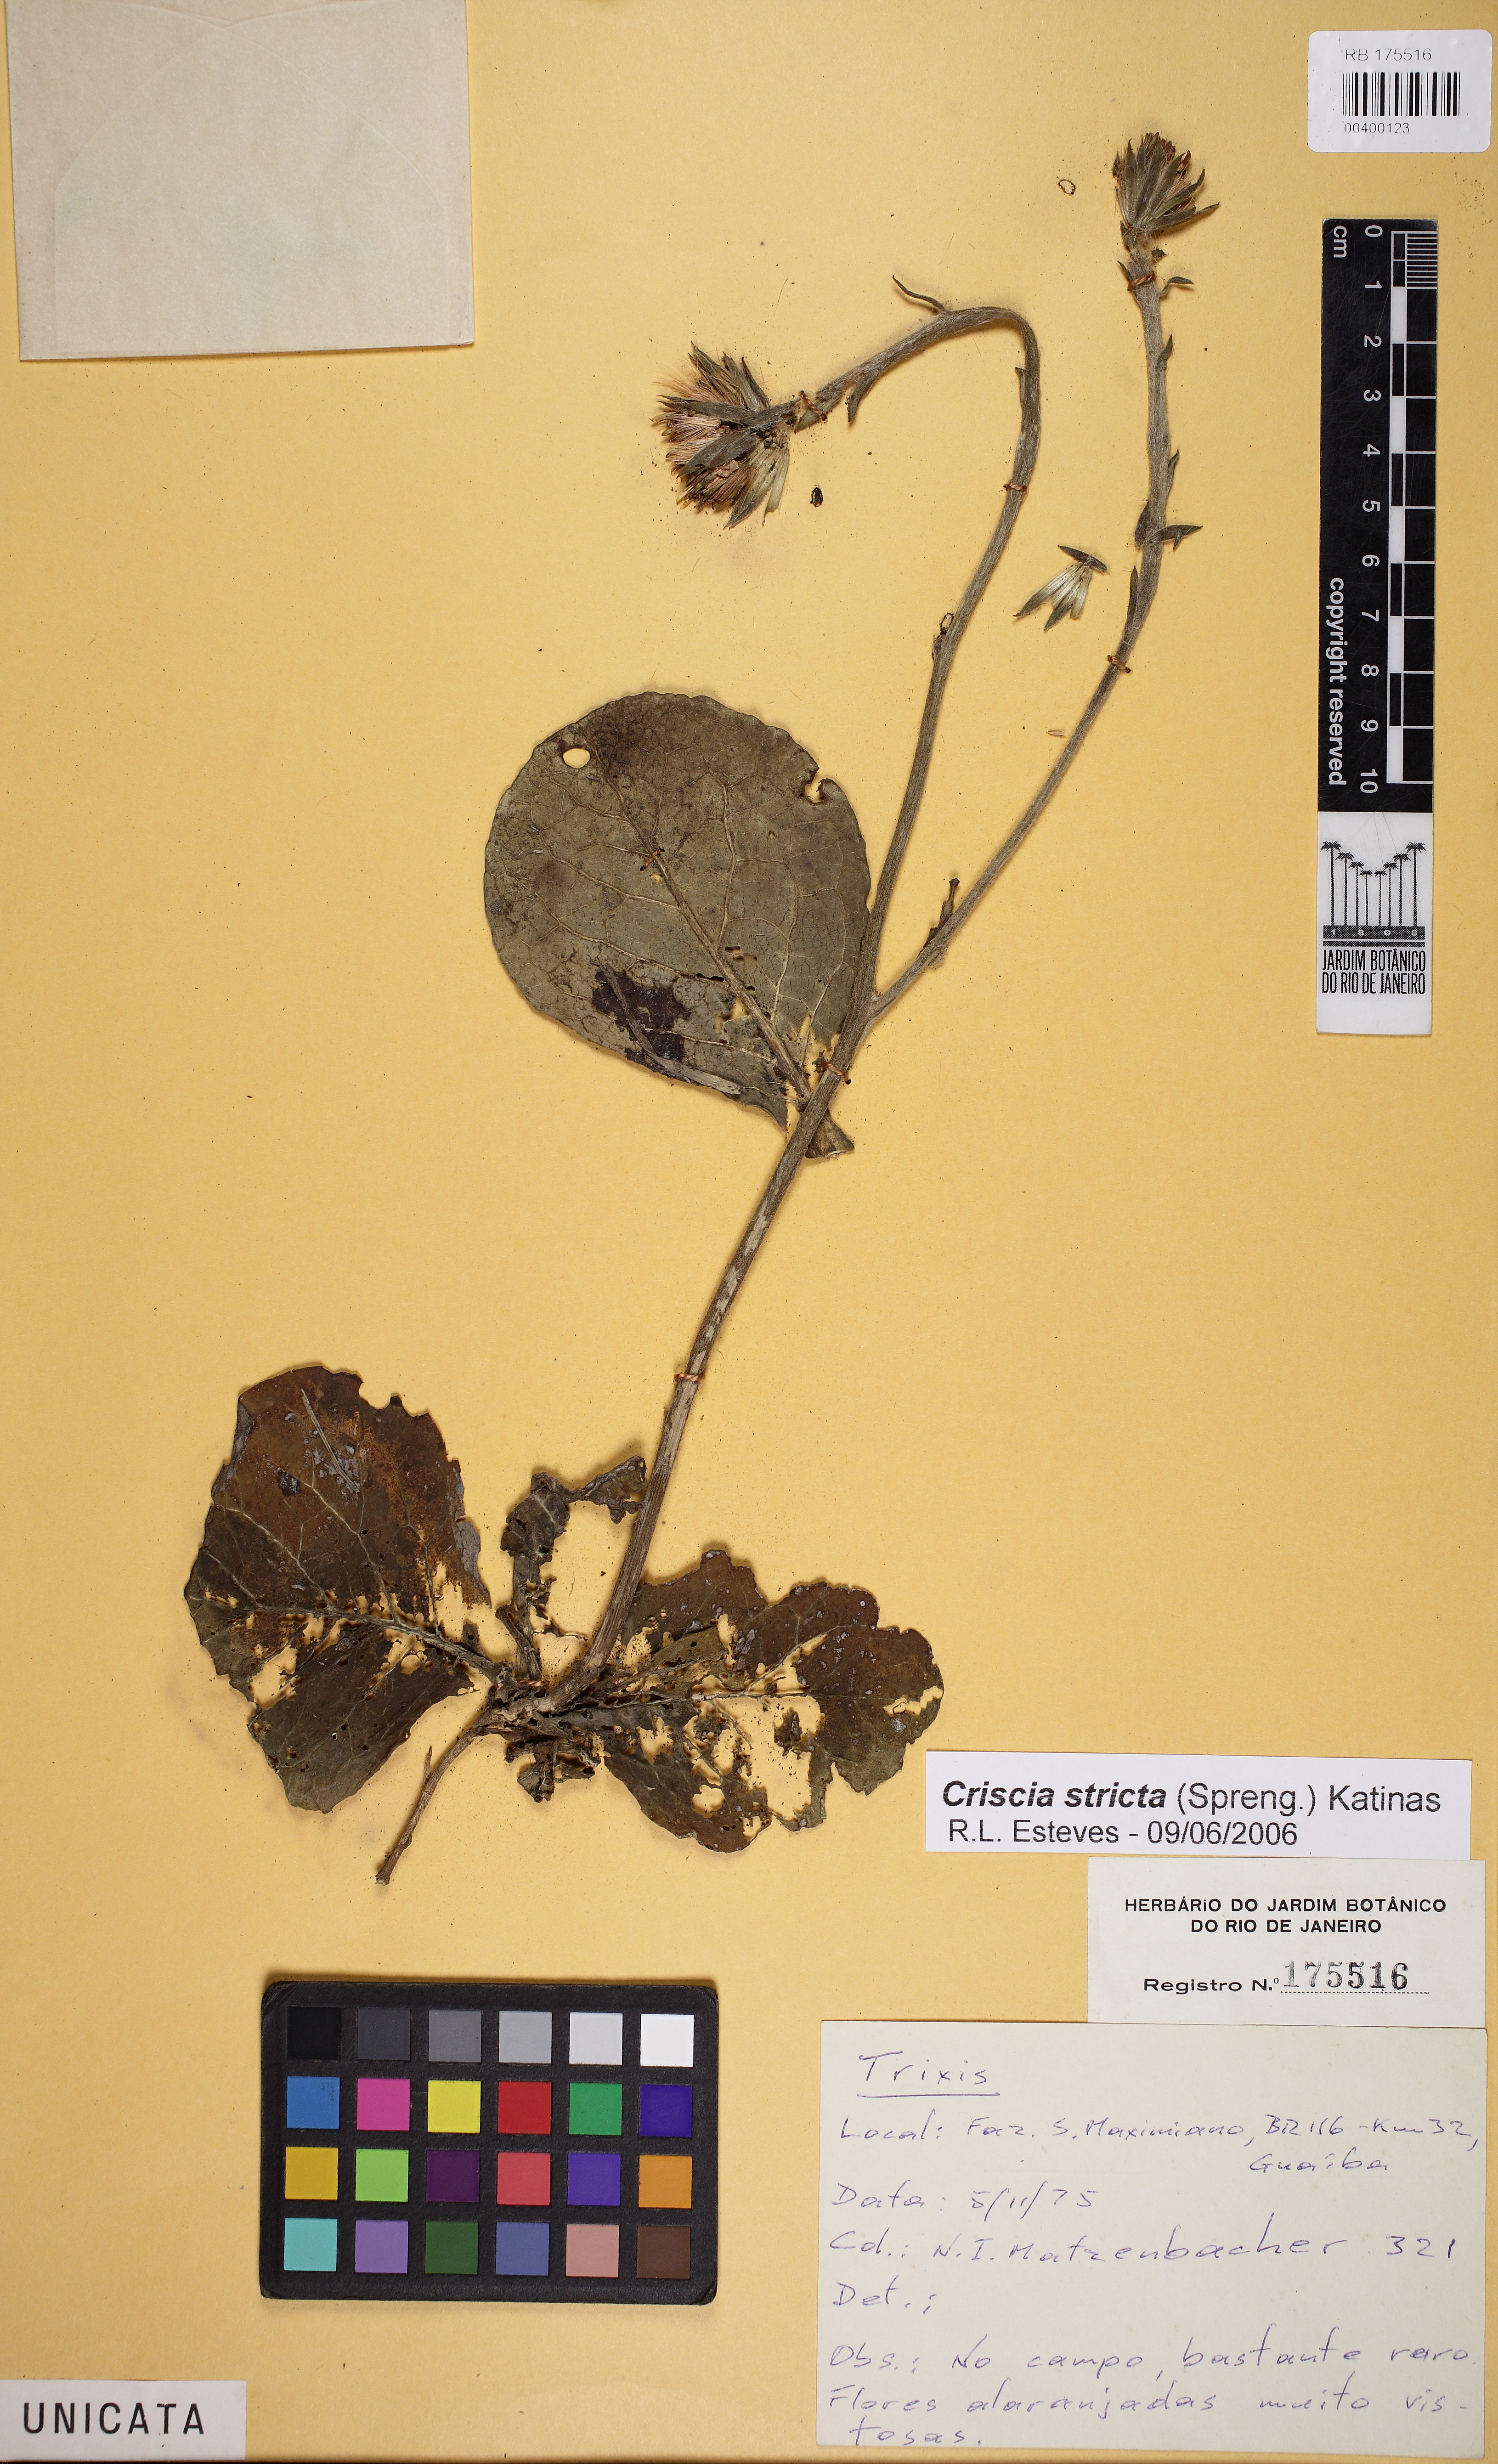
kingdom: Plantae
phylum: Tracheophyta
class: Magnoliopsida
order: Asterales
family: Asteraceae
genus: Criscia
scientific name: Criscia stricta
